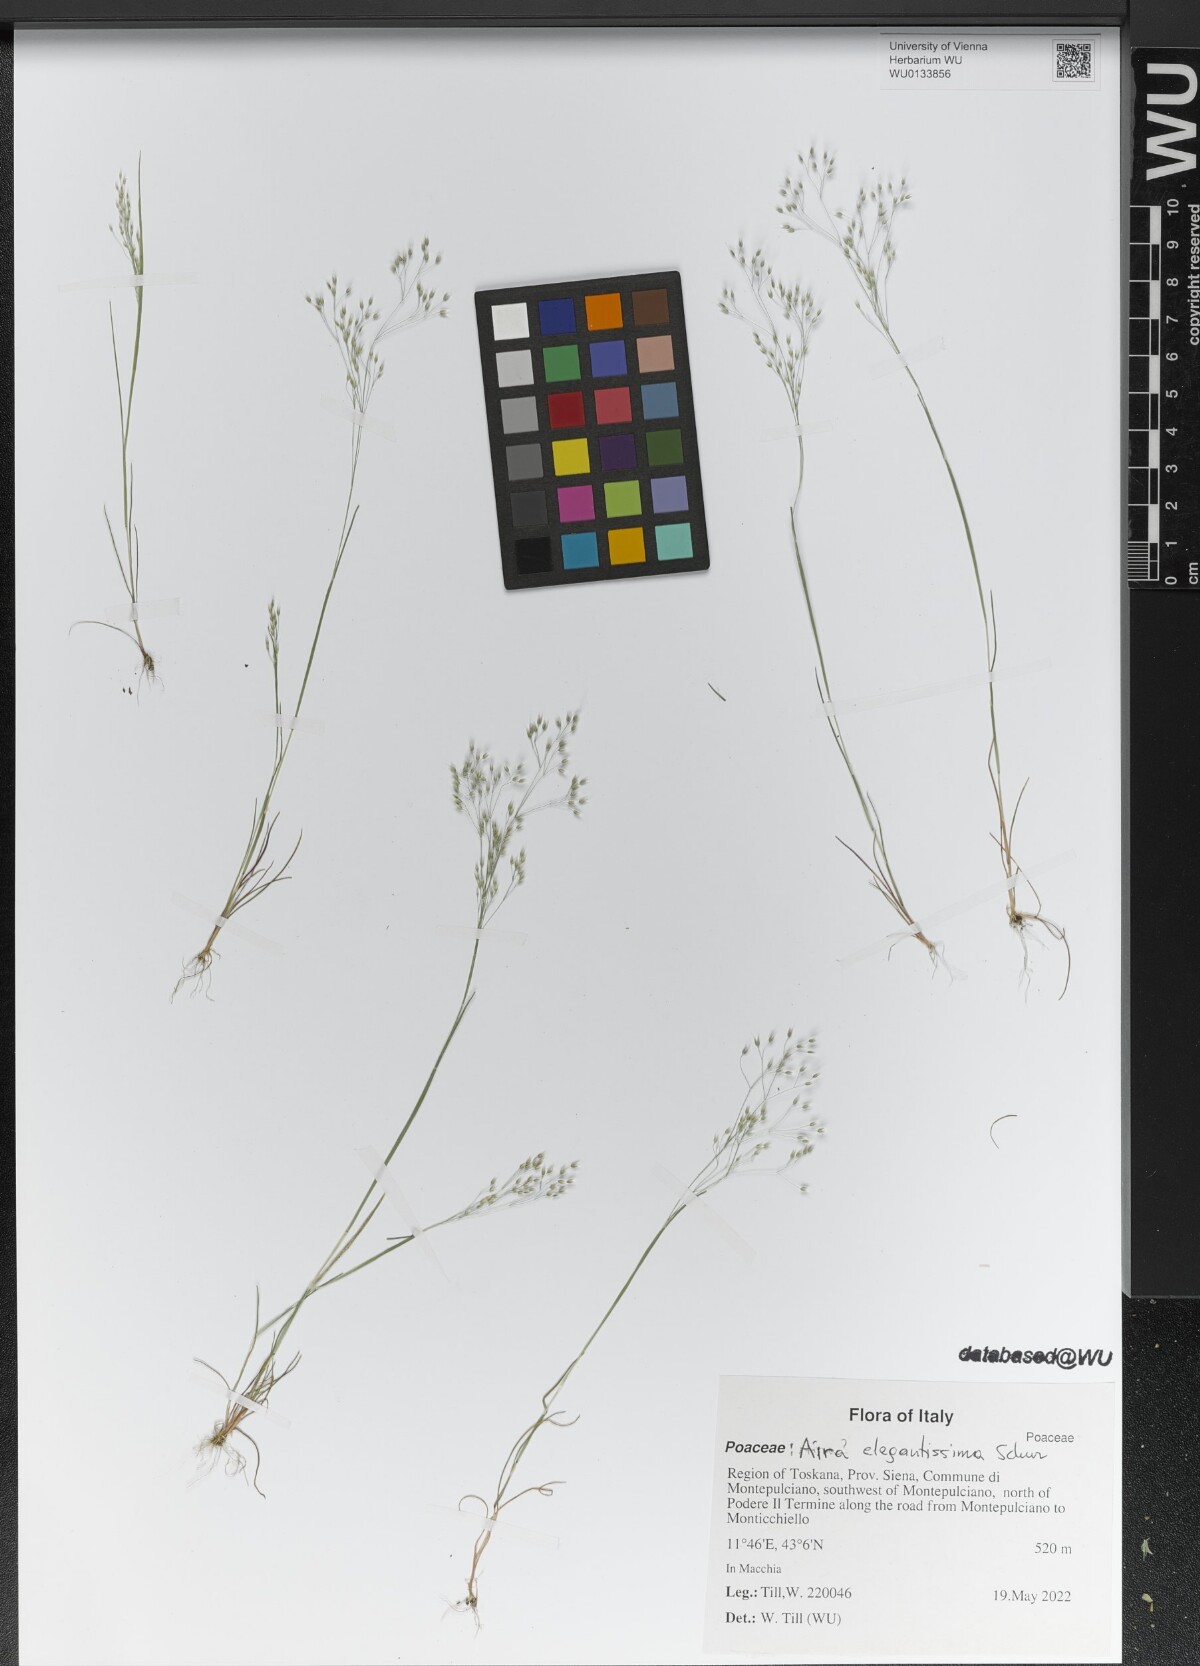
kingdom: Plantae
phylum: Tracheophyta
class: Liliopsida
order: Poales
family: Poaceae
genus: Aira
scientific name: Aira elegans
